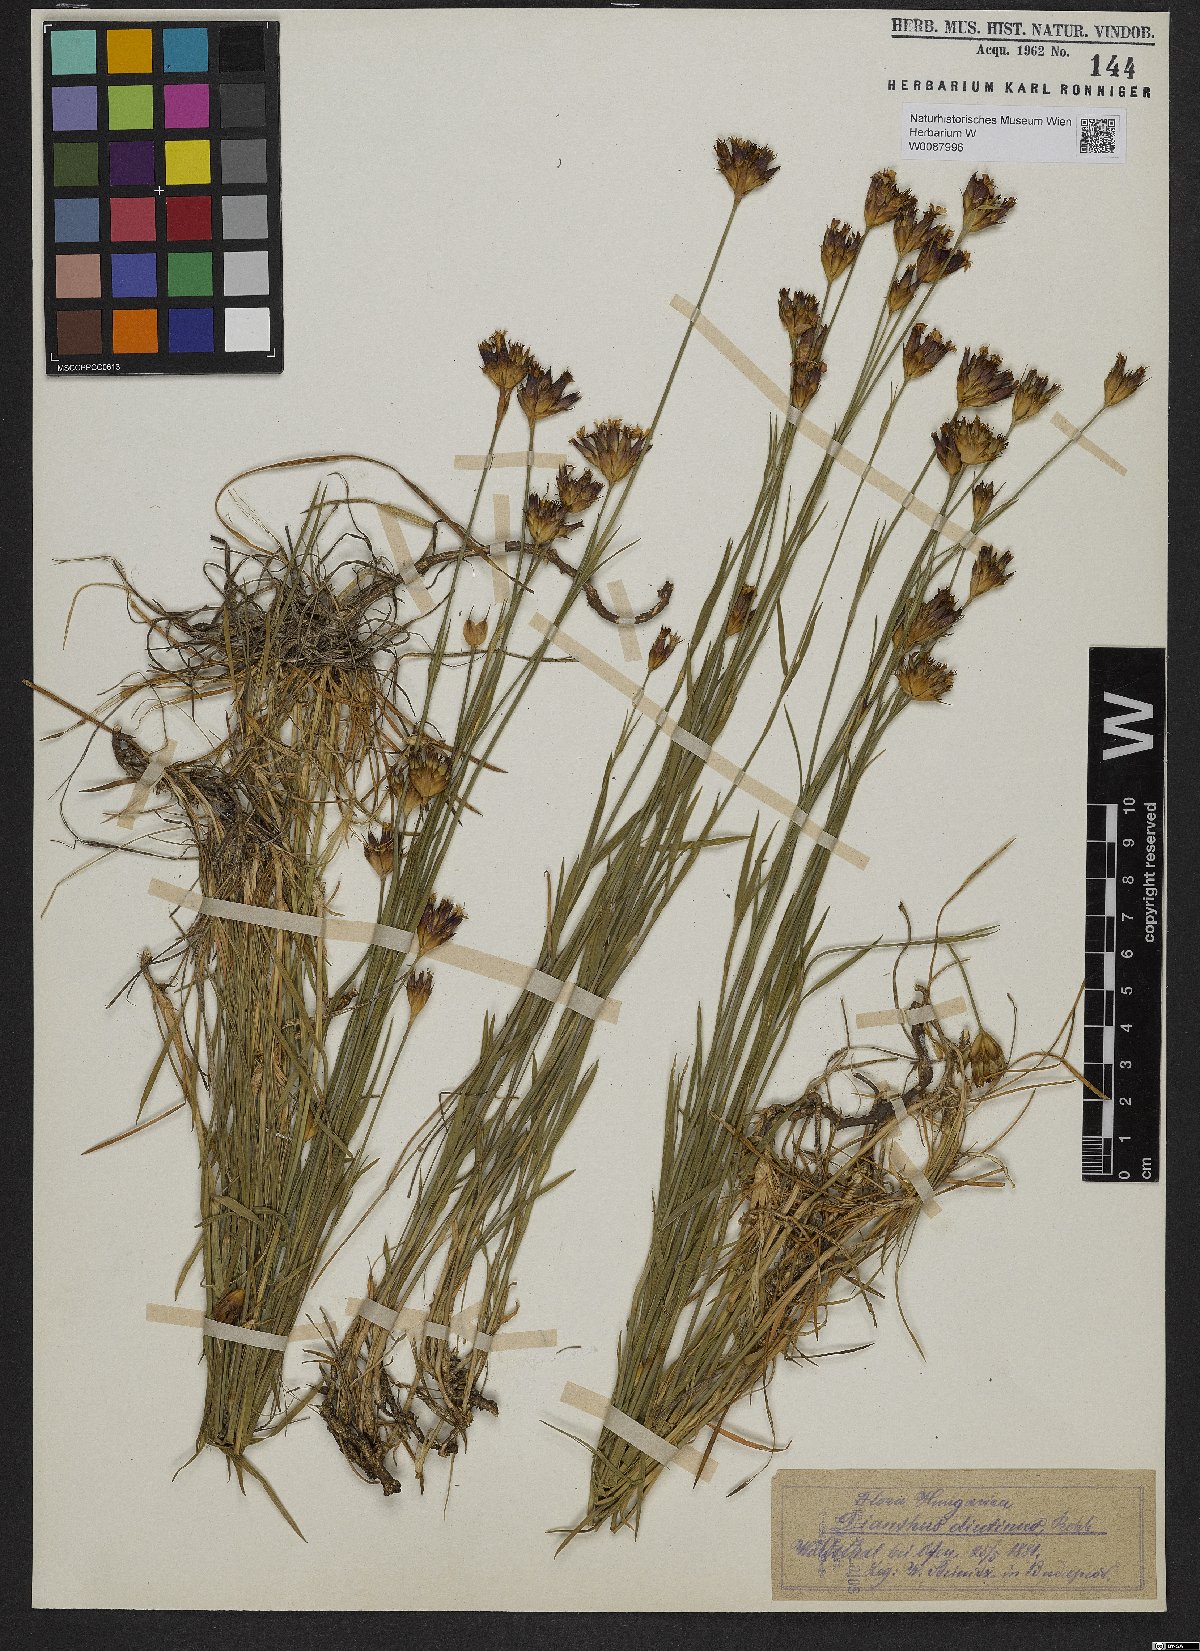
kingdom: Plantae
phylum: Tracheophyta
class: Magnoliopsida
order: Caryophyllales
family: Caryophyllaceae
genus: Dianthus
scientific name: Dianthus pontederae
